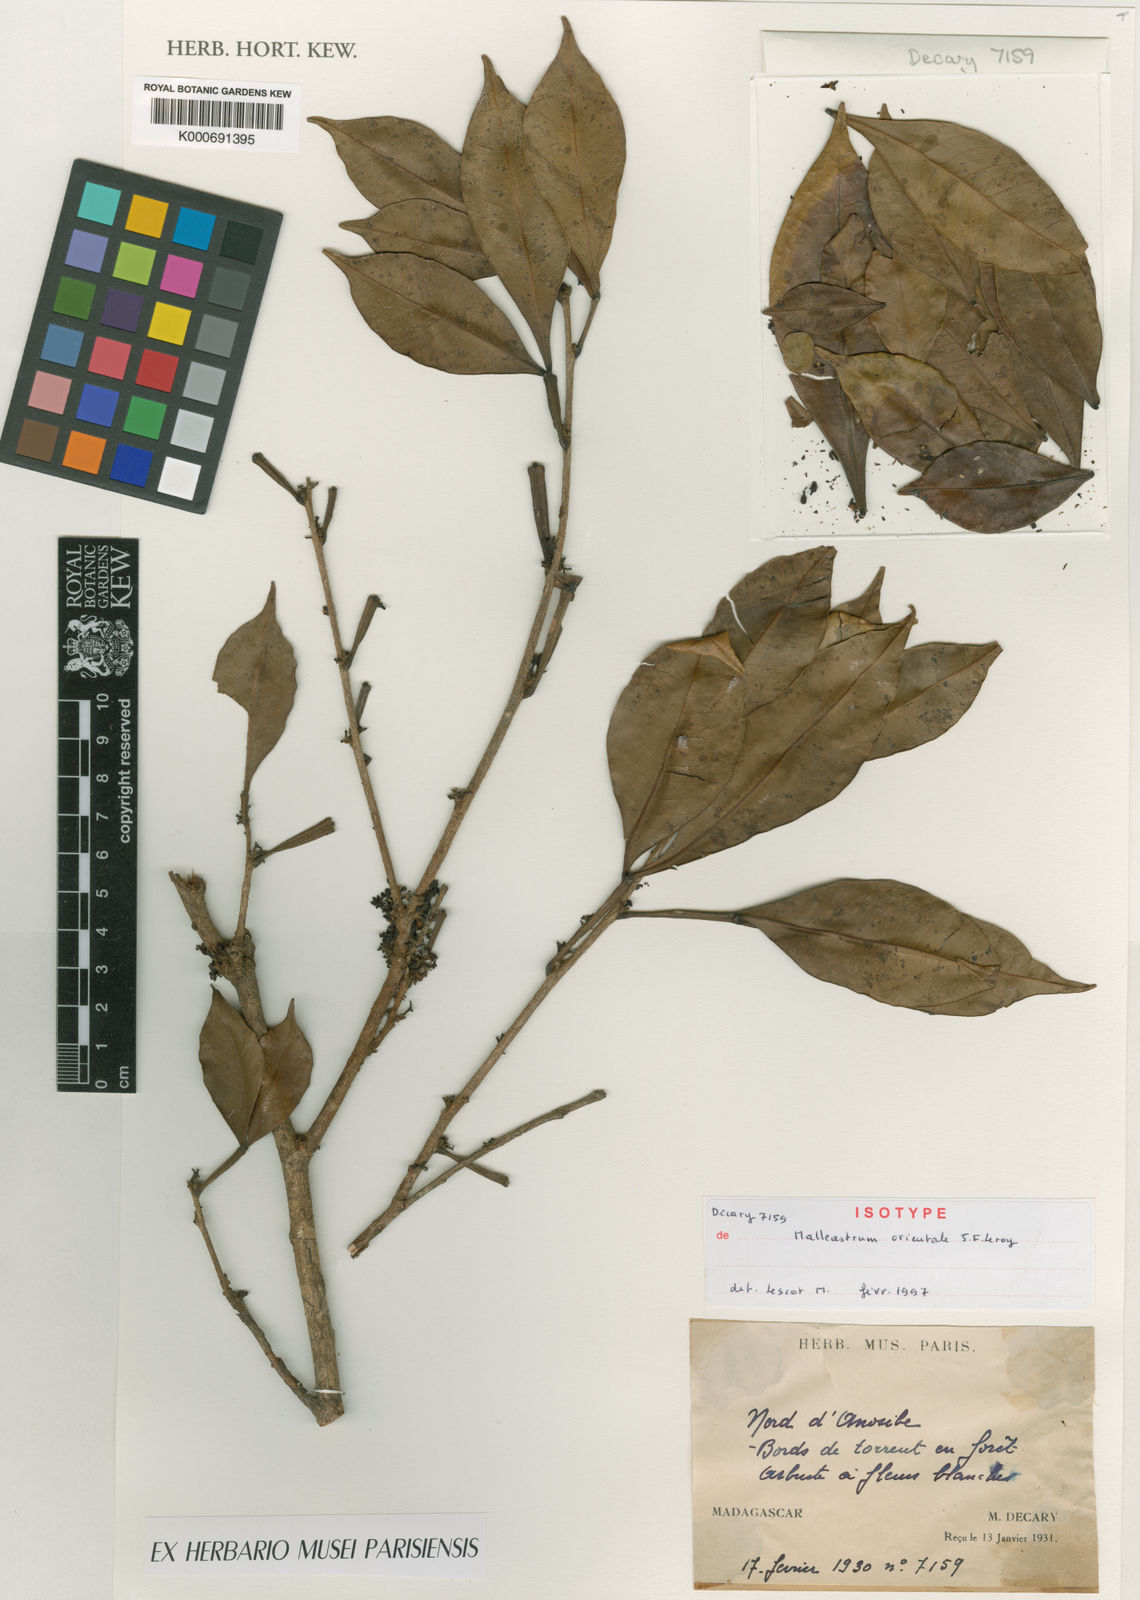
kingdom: Plantae
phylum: Tracheophyta
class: Magnoliopsida
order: Sapindales
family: Meliaceae
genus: Malleastrum
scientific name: Malleastrum orientale
